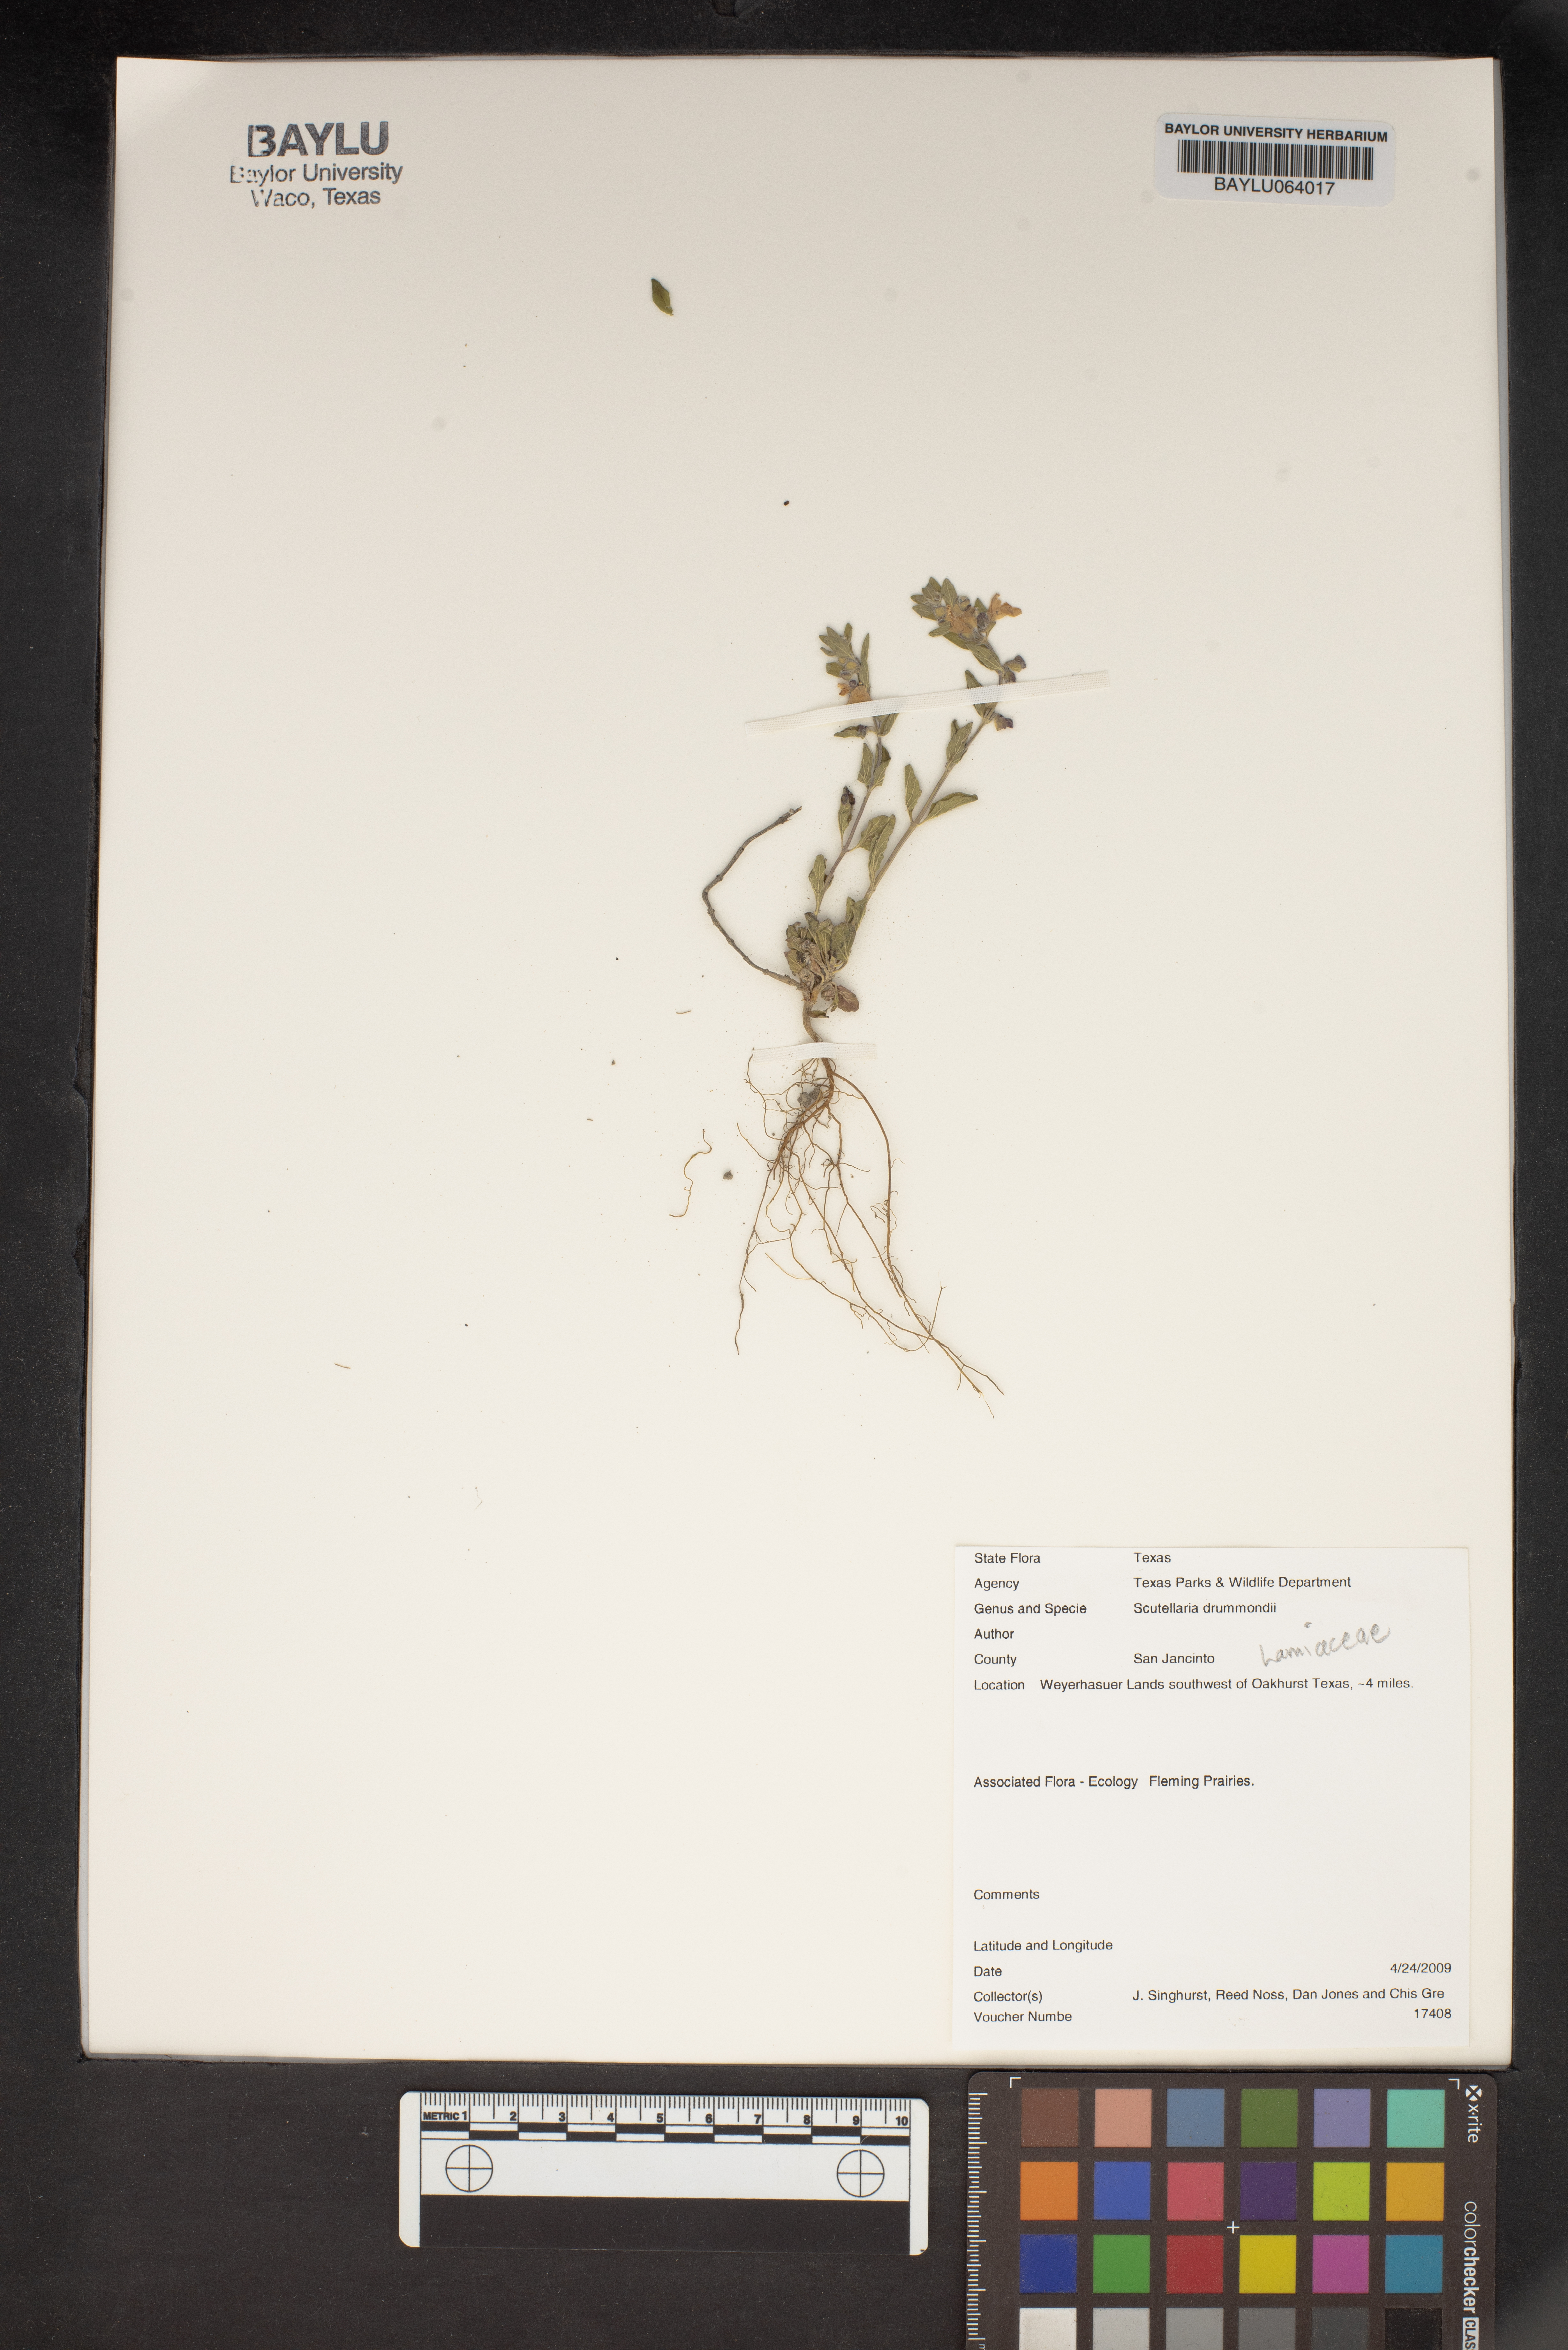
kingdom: Plantae
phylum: Tracheophyta
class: Magnoliopsida
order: Lamiales
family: Lamiaceae
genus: Scutellaria
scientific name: Scutellaria drummondii
